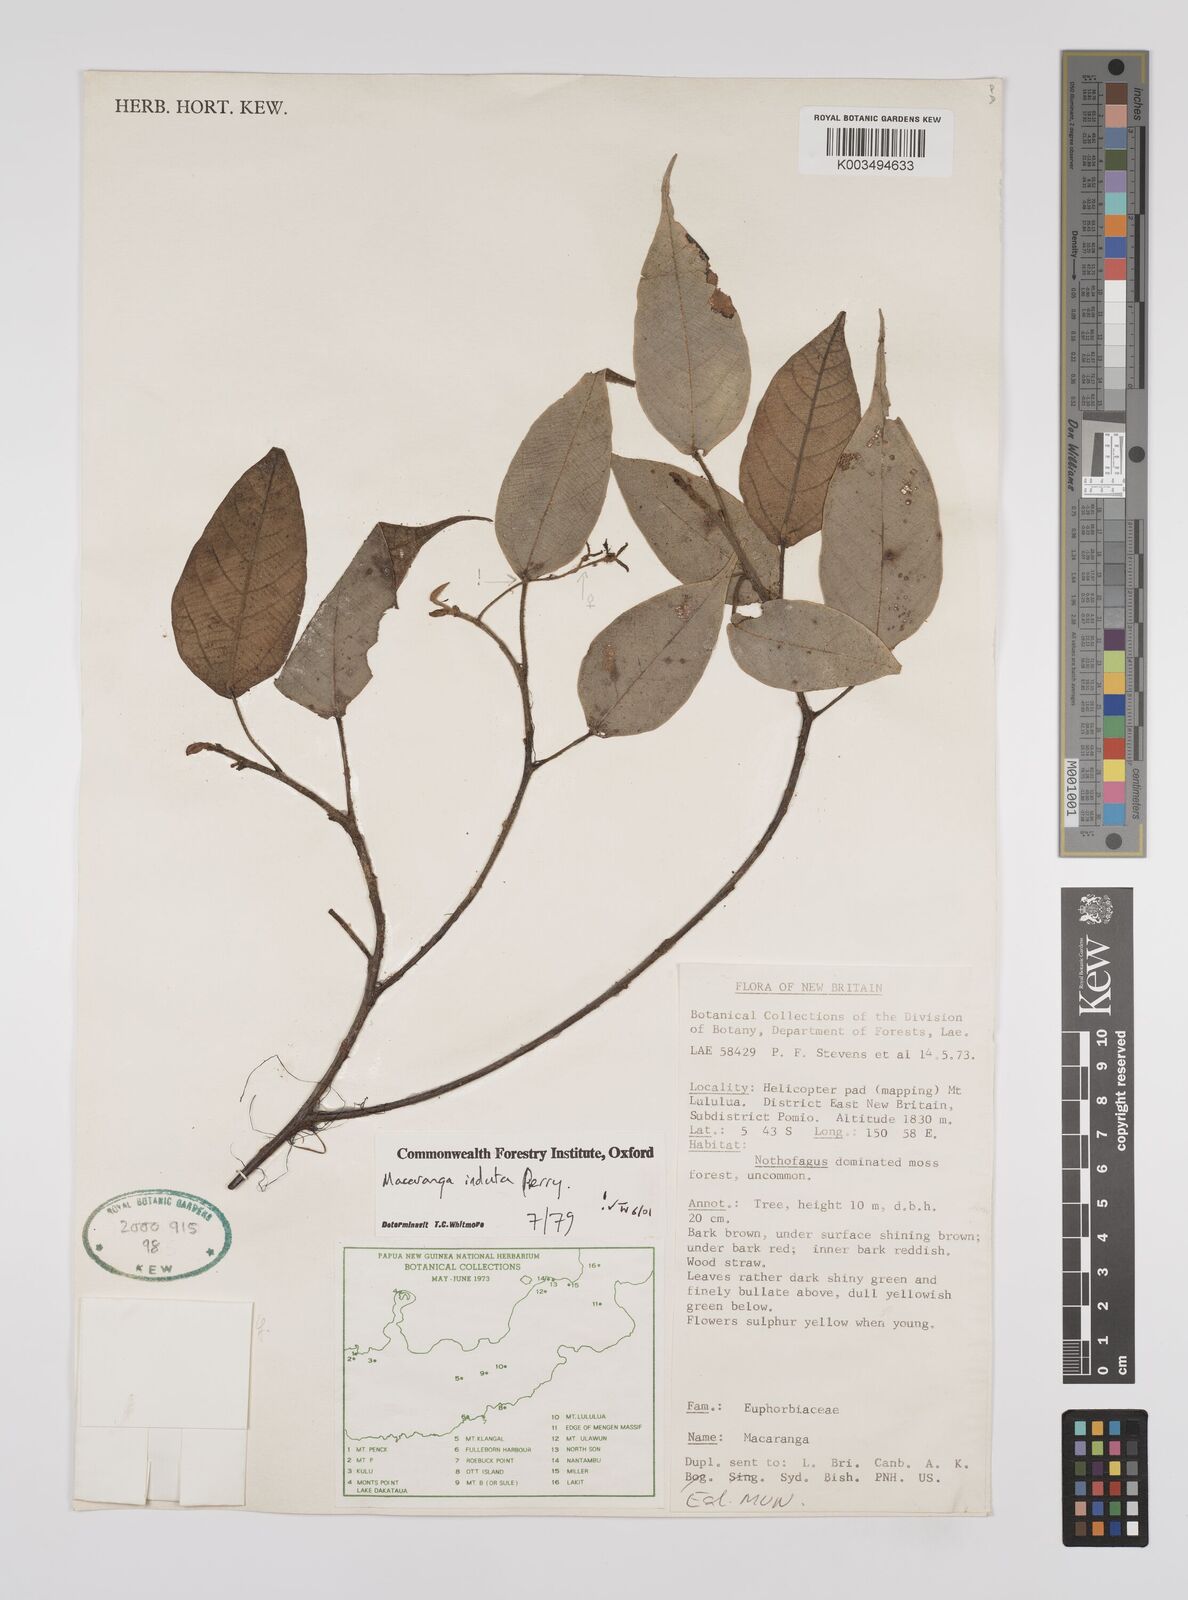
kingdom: Plantae
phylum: Tracheophyta
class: Magnoliopsida
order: Malpighiales
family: Euphorbiaceae
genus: Macaranga
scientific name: Macaranga induta
